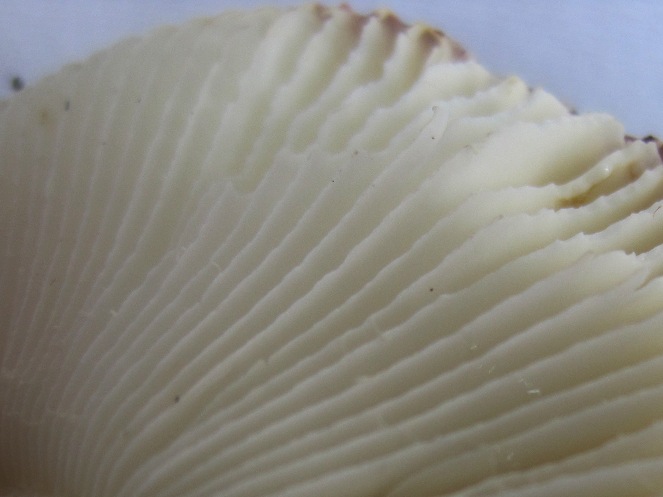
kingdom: Fungi
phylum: Basidiomycota
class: Agaricomycetes
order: Russulales
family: Russulaceae
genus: Russula
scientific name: Russula fragilis
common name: Fragile brittlegill
